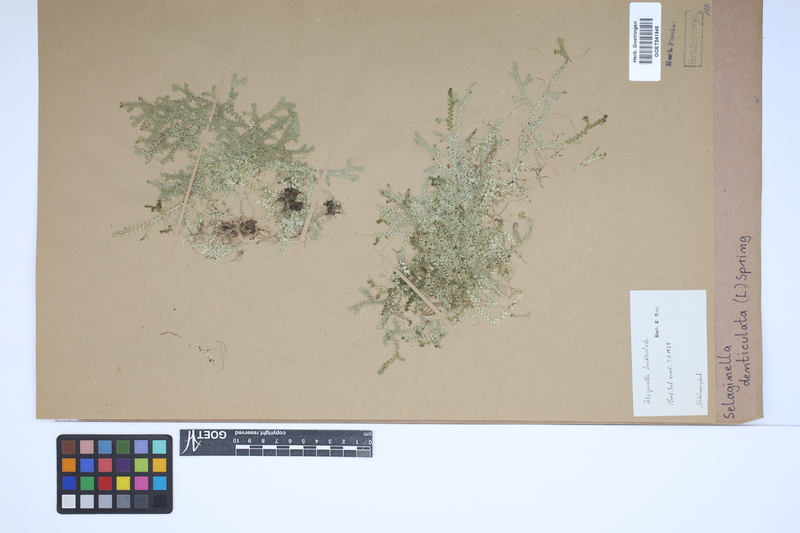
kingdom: Plantae
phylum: Tracheophyta
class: Lycopodiopsida
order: Selaginellales
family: Selaginellaceae
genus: Selaginella
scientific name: Selaginella denticulata
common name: Toothed-leaved clubmoss
